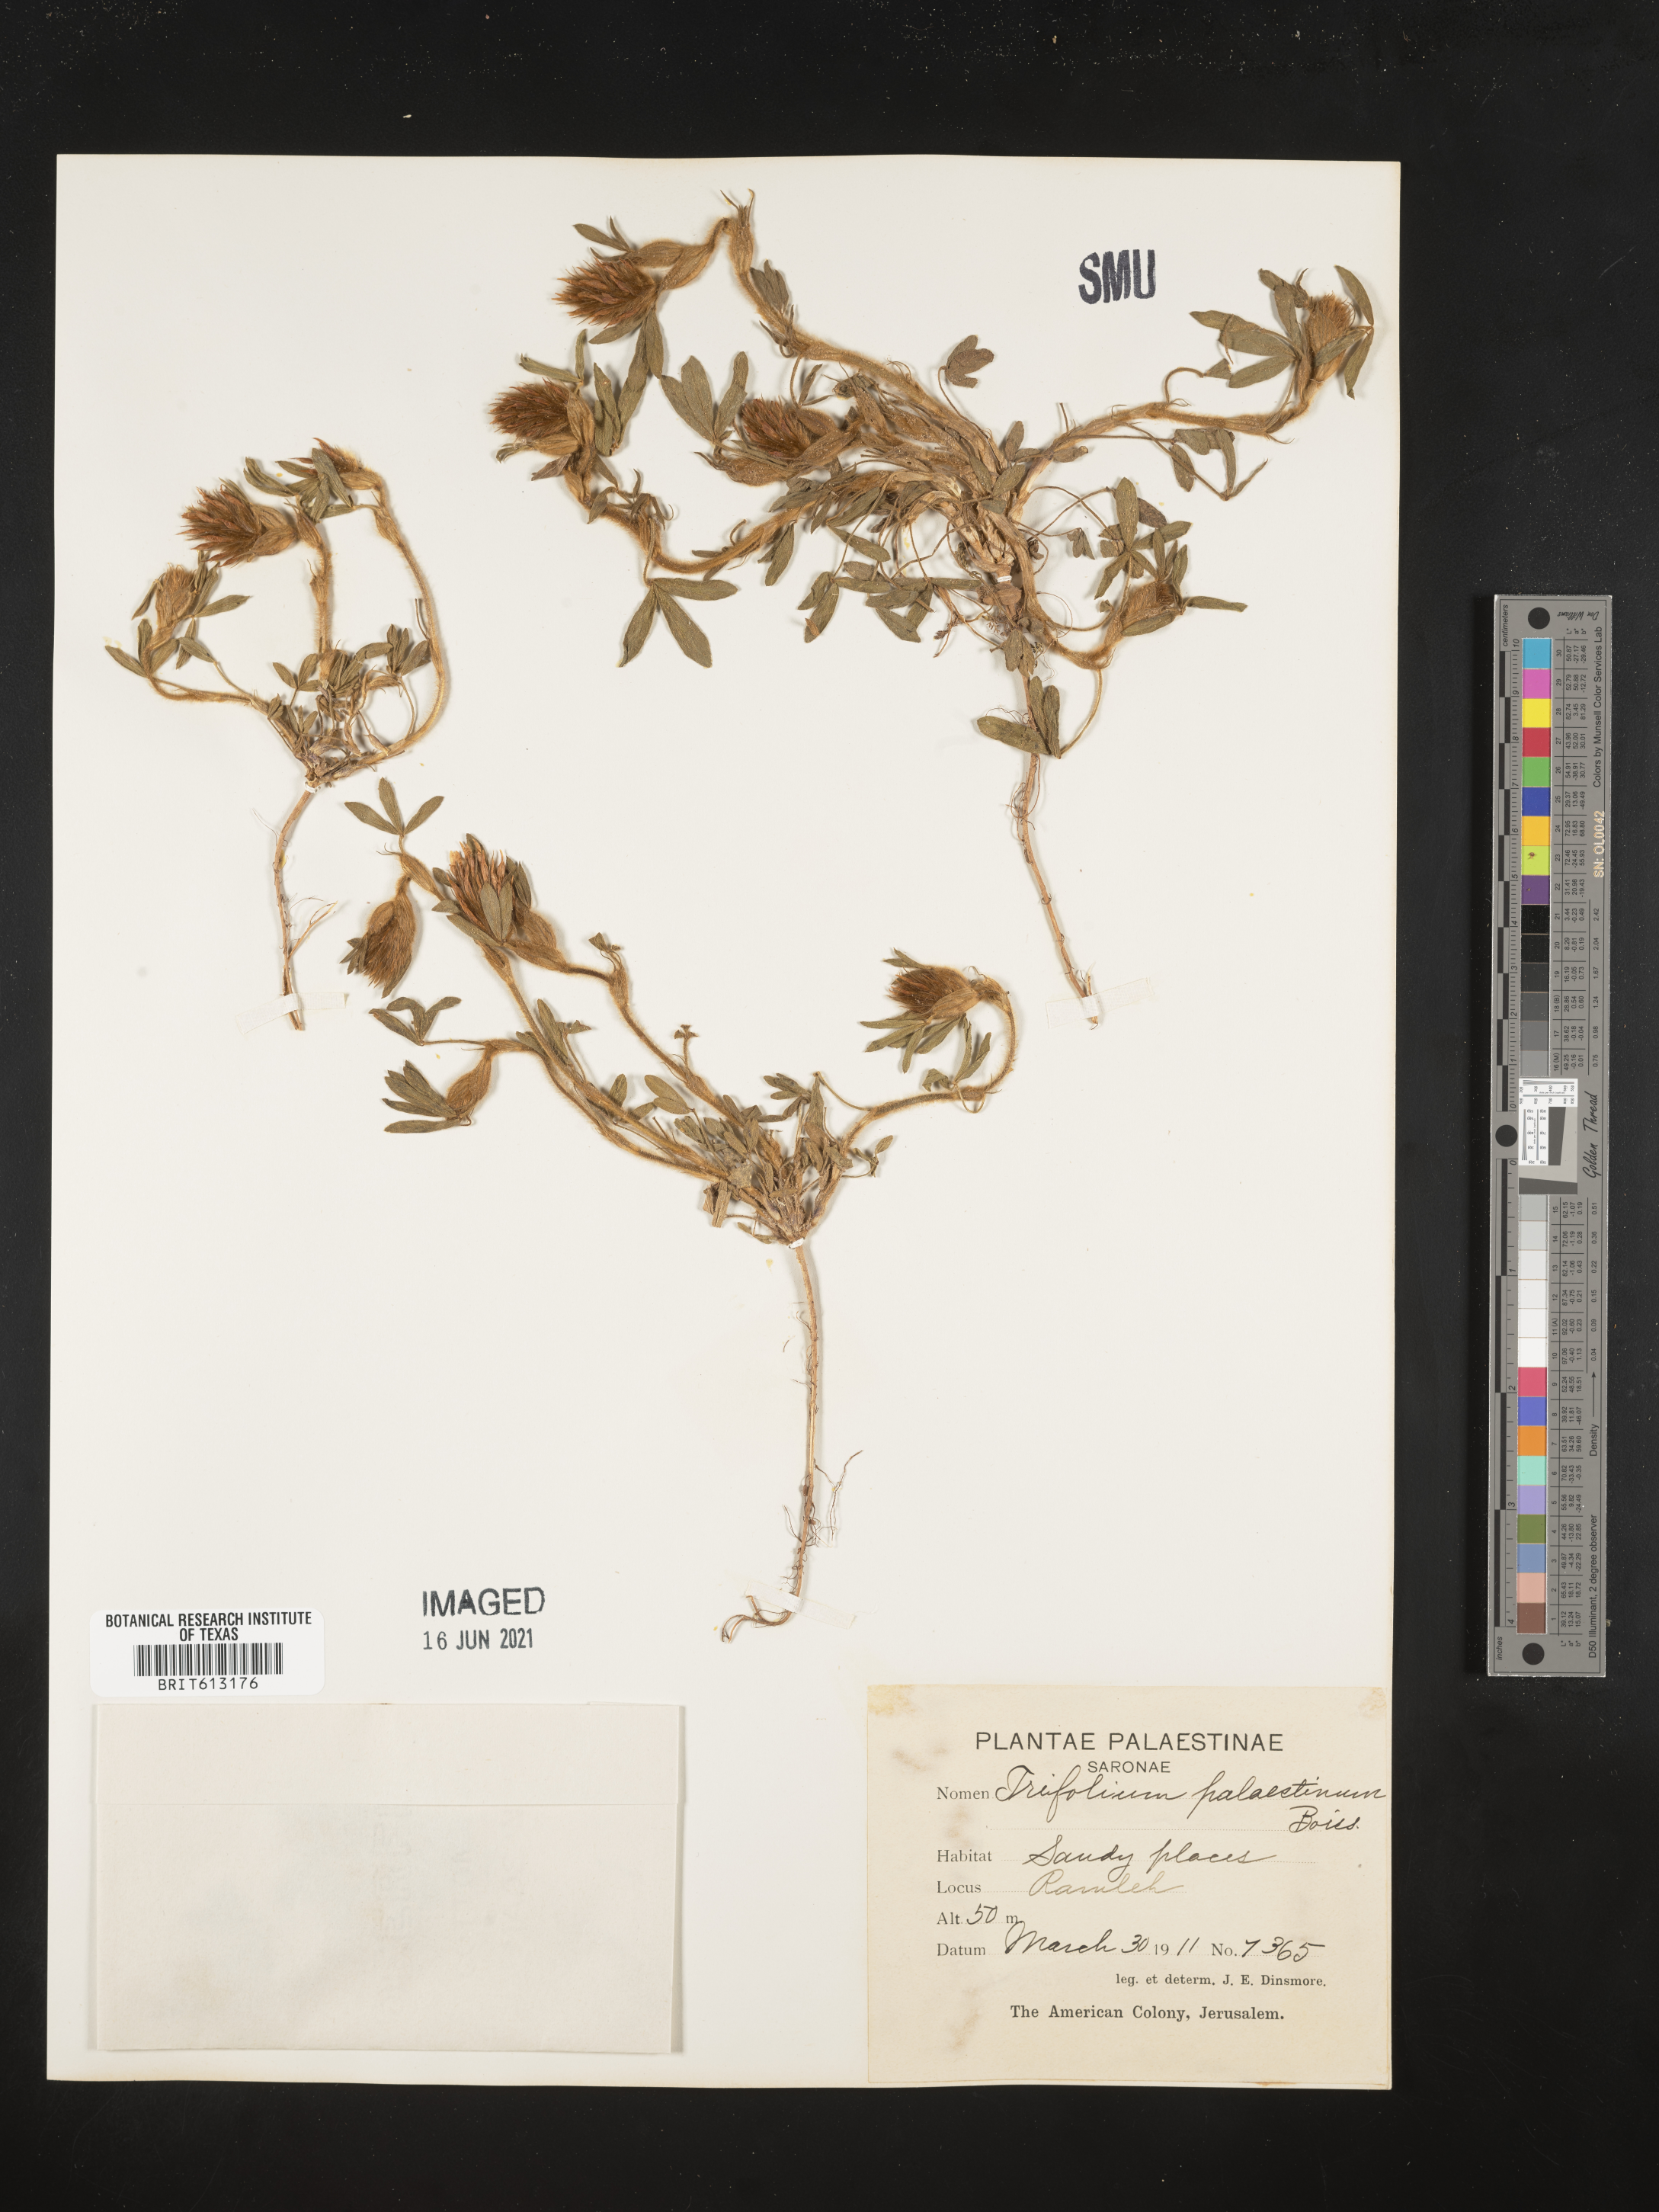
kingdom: Plantae
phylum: Tracheophyta
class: Magnoliopsida
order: Fabales
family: Fabaceae
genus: Trifolium
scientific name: Trifolium palaestinum
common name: Palestine clover
